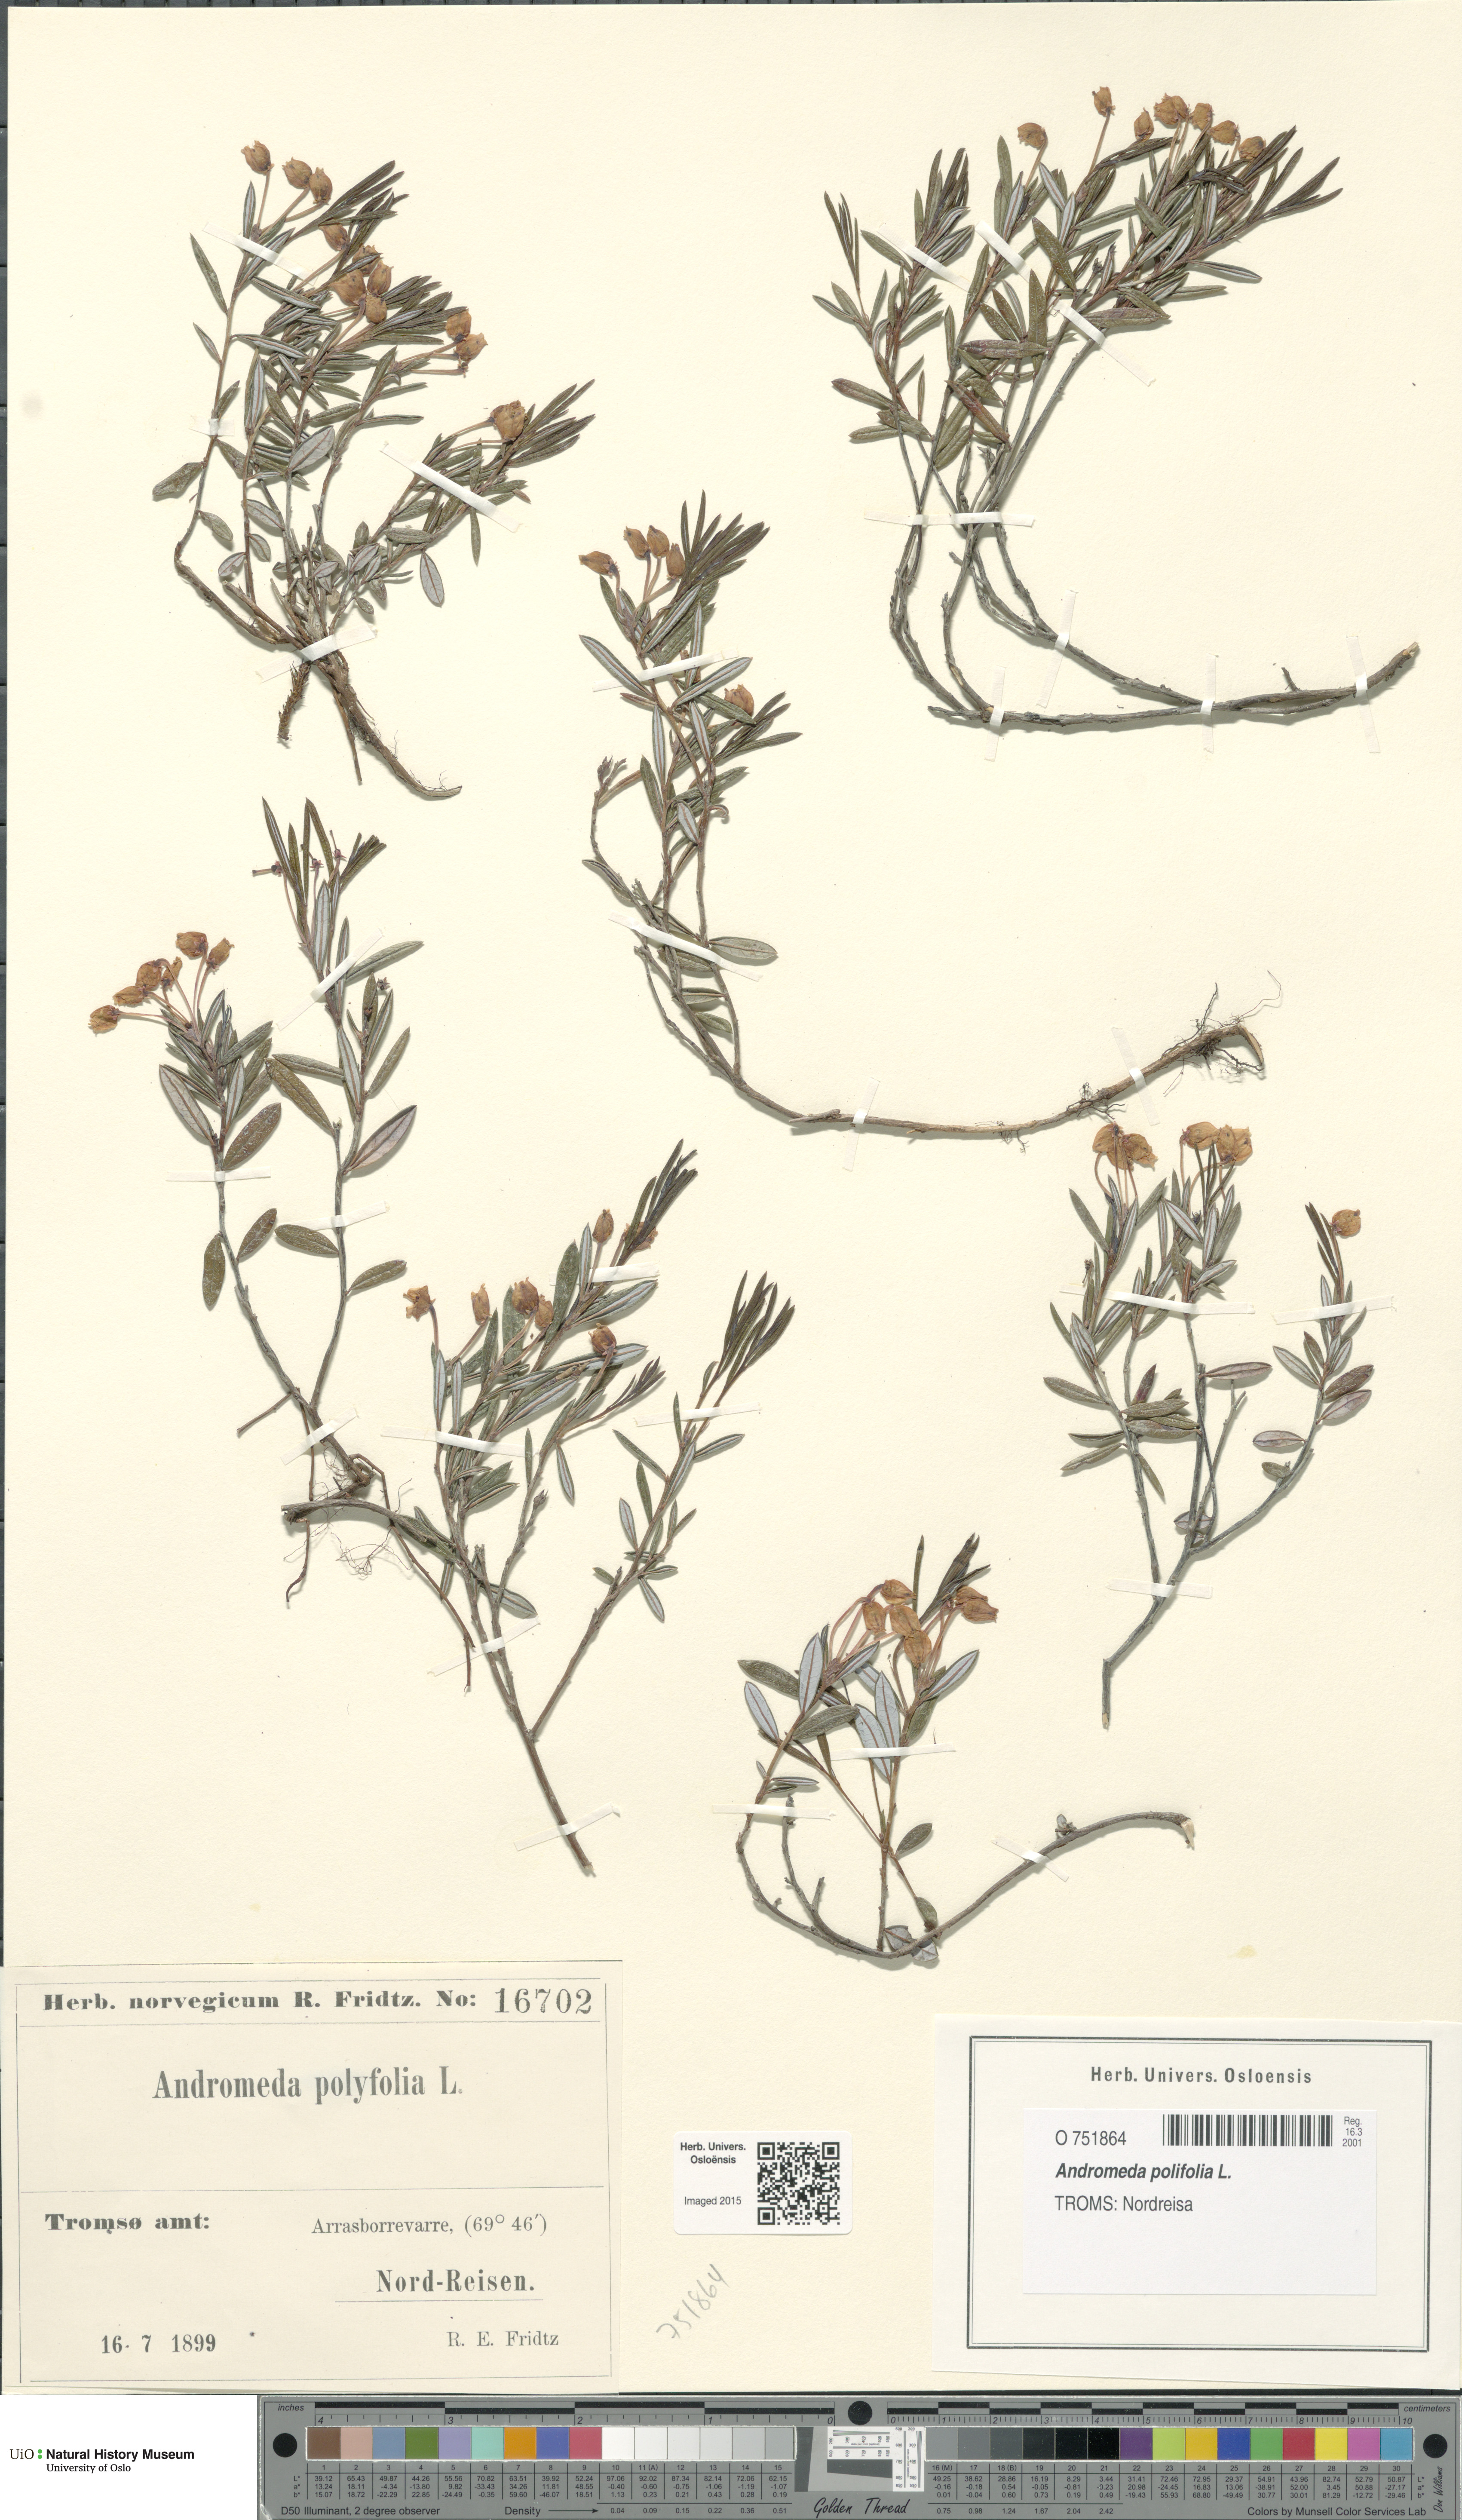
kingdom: Plantae
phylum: Tracheophyta
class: Magnoliopsida
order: Ericales
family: Ericaceae
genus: Andromeda
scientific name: Andromeda polifolia
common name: Bog-rosemary
